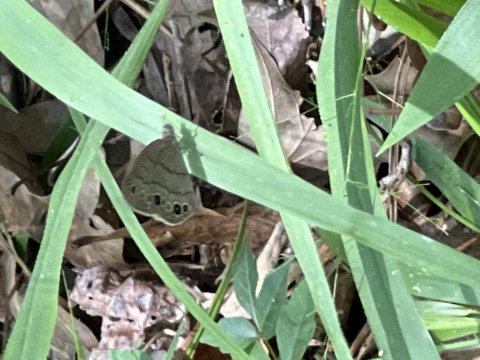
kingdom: Animalia
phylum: Arthropoda
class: Insecta
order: Lepidoptera
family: Nymphalidae
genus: Hermeuptychia
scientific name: Hermeuptychia hermes
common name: Carolina Satyr
